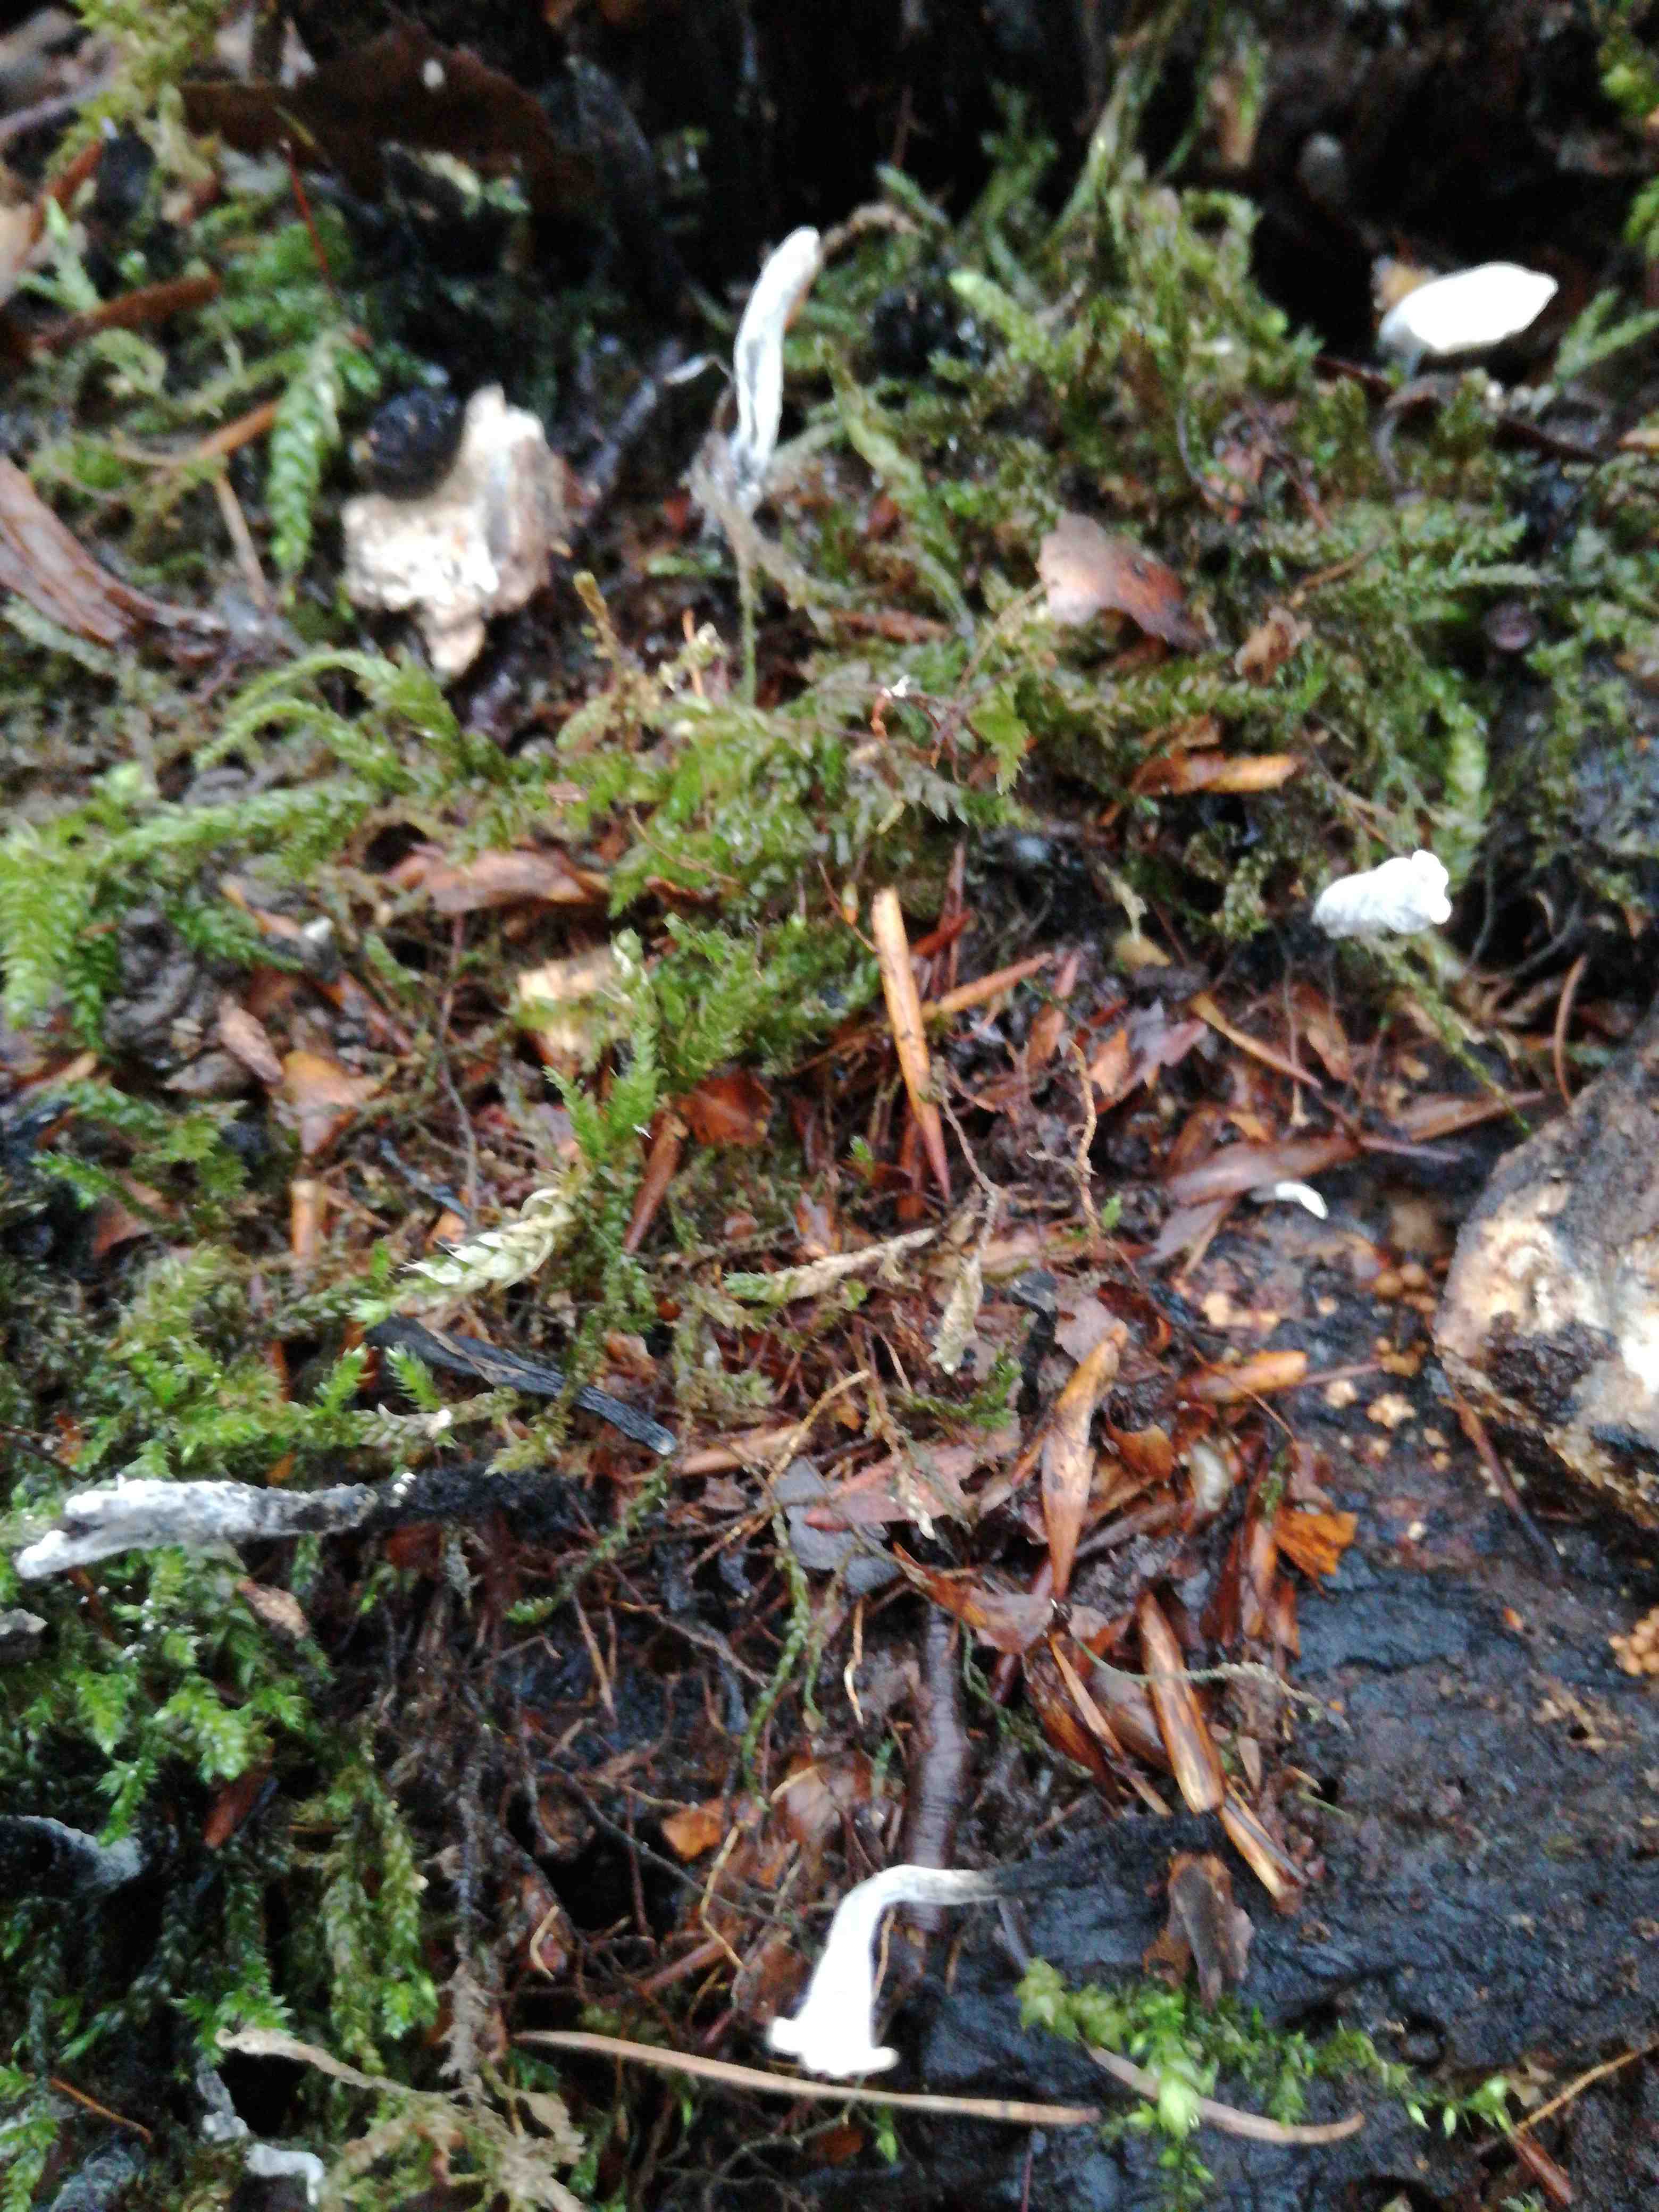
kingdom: Fungi
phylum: Ascomycota
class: Sordariomycetes
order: Xylariales
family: Xylariaceae
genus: Xylaria
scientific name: Xylaria hypoxylon
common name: grenet stødsvamp
